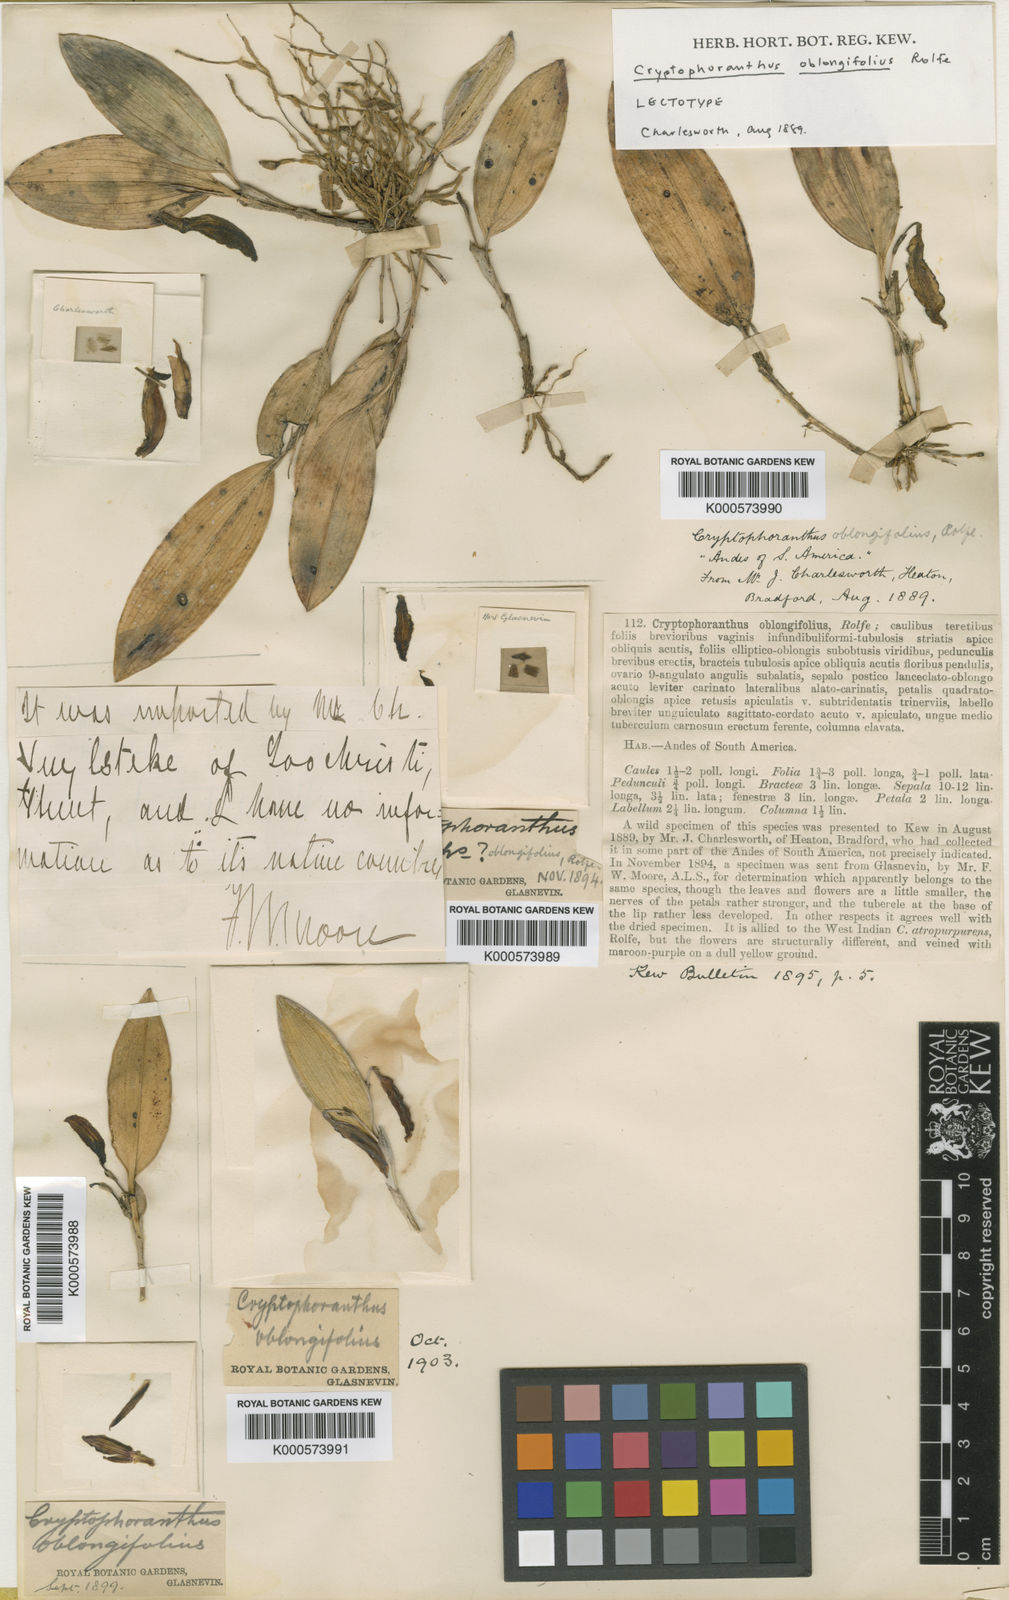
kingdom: Plantae
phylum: Tracheophyta
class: Liliopsida
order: Asparagales
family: Orchidaceae
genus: Zootrophion
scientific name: Zootrophion oblongifolium
